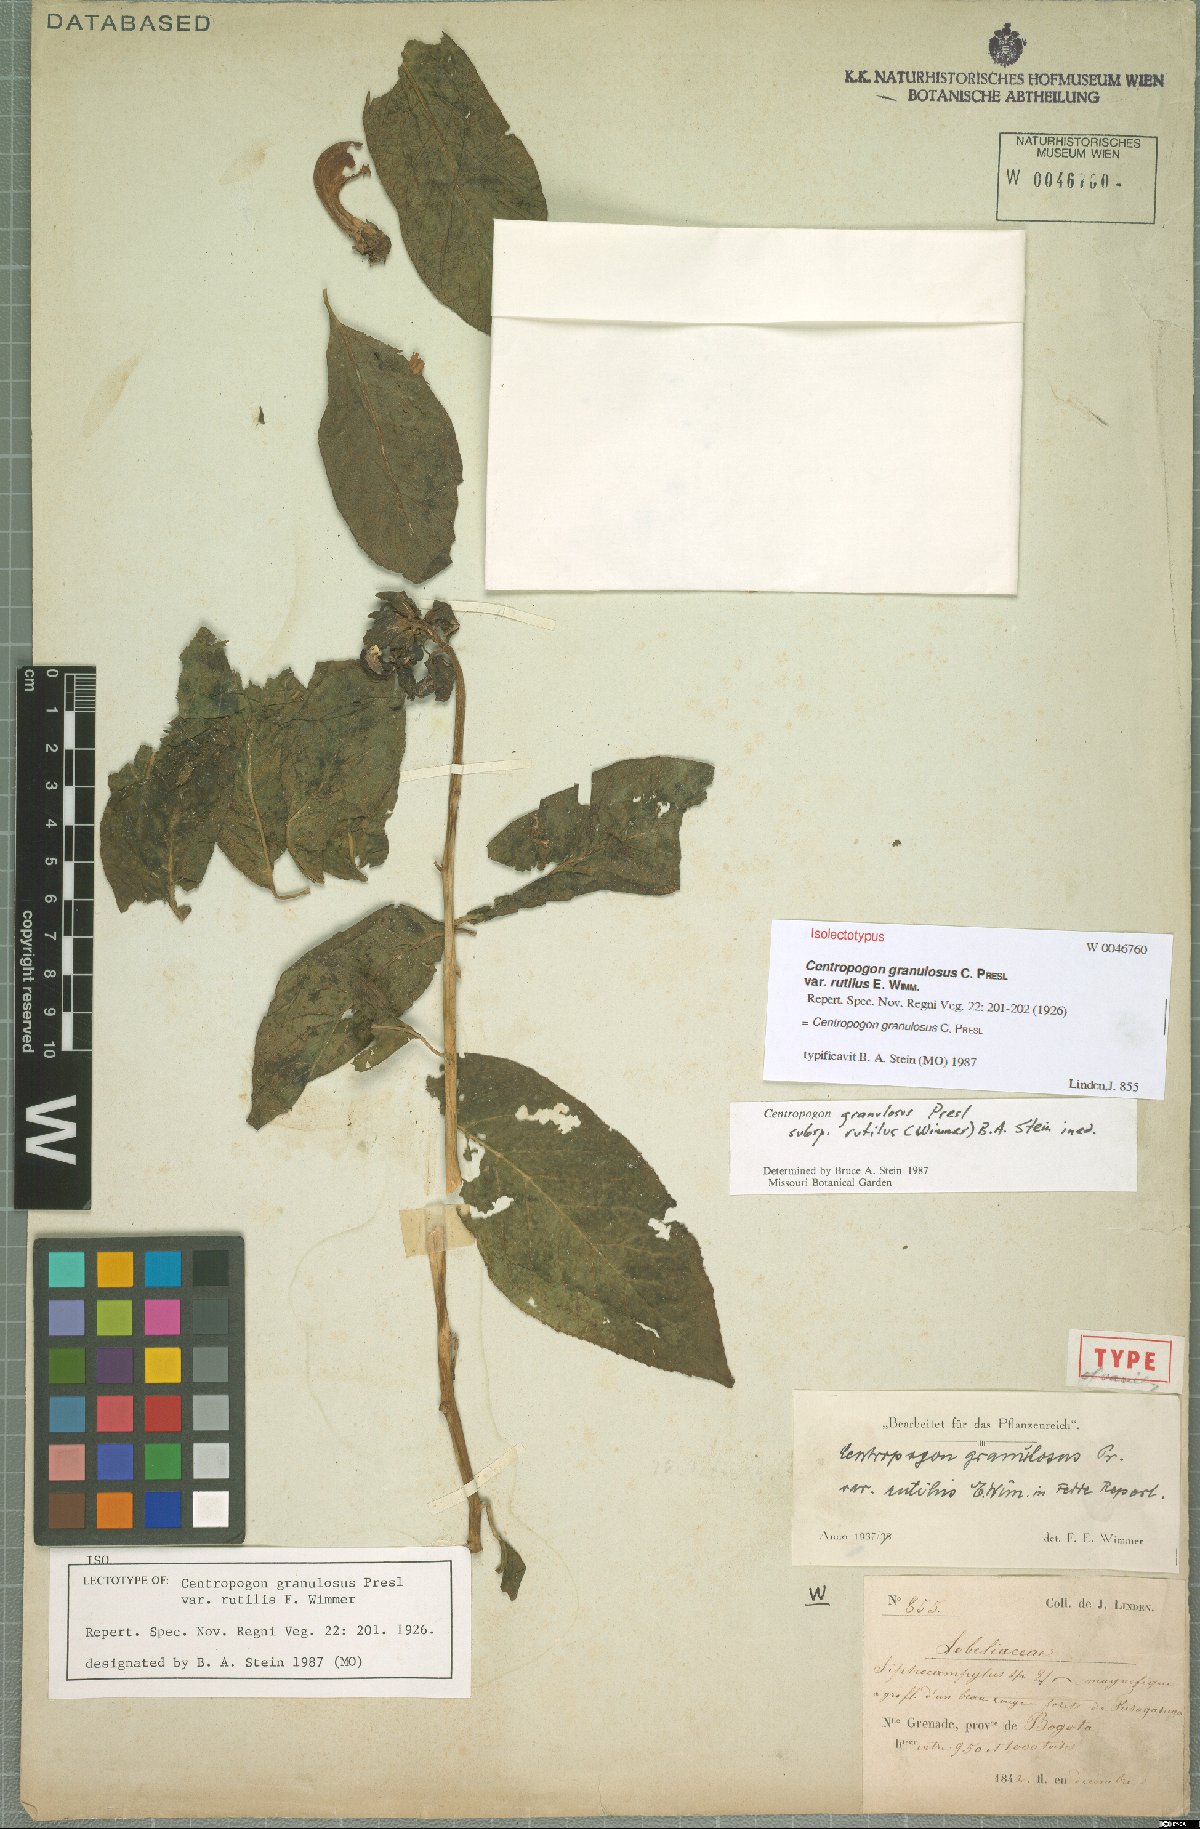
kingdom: Plantae
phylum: Tracheophyta
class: Magnoliopsida
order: Asterales
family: Campanulaceae
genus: Centropogon
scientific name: Centropogon granulosus
